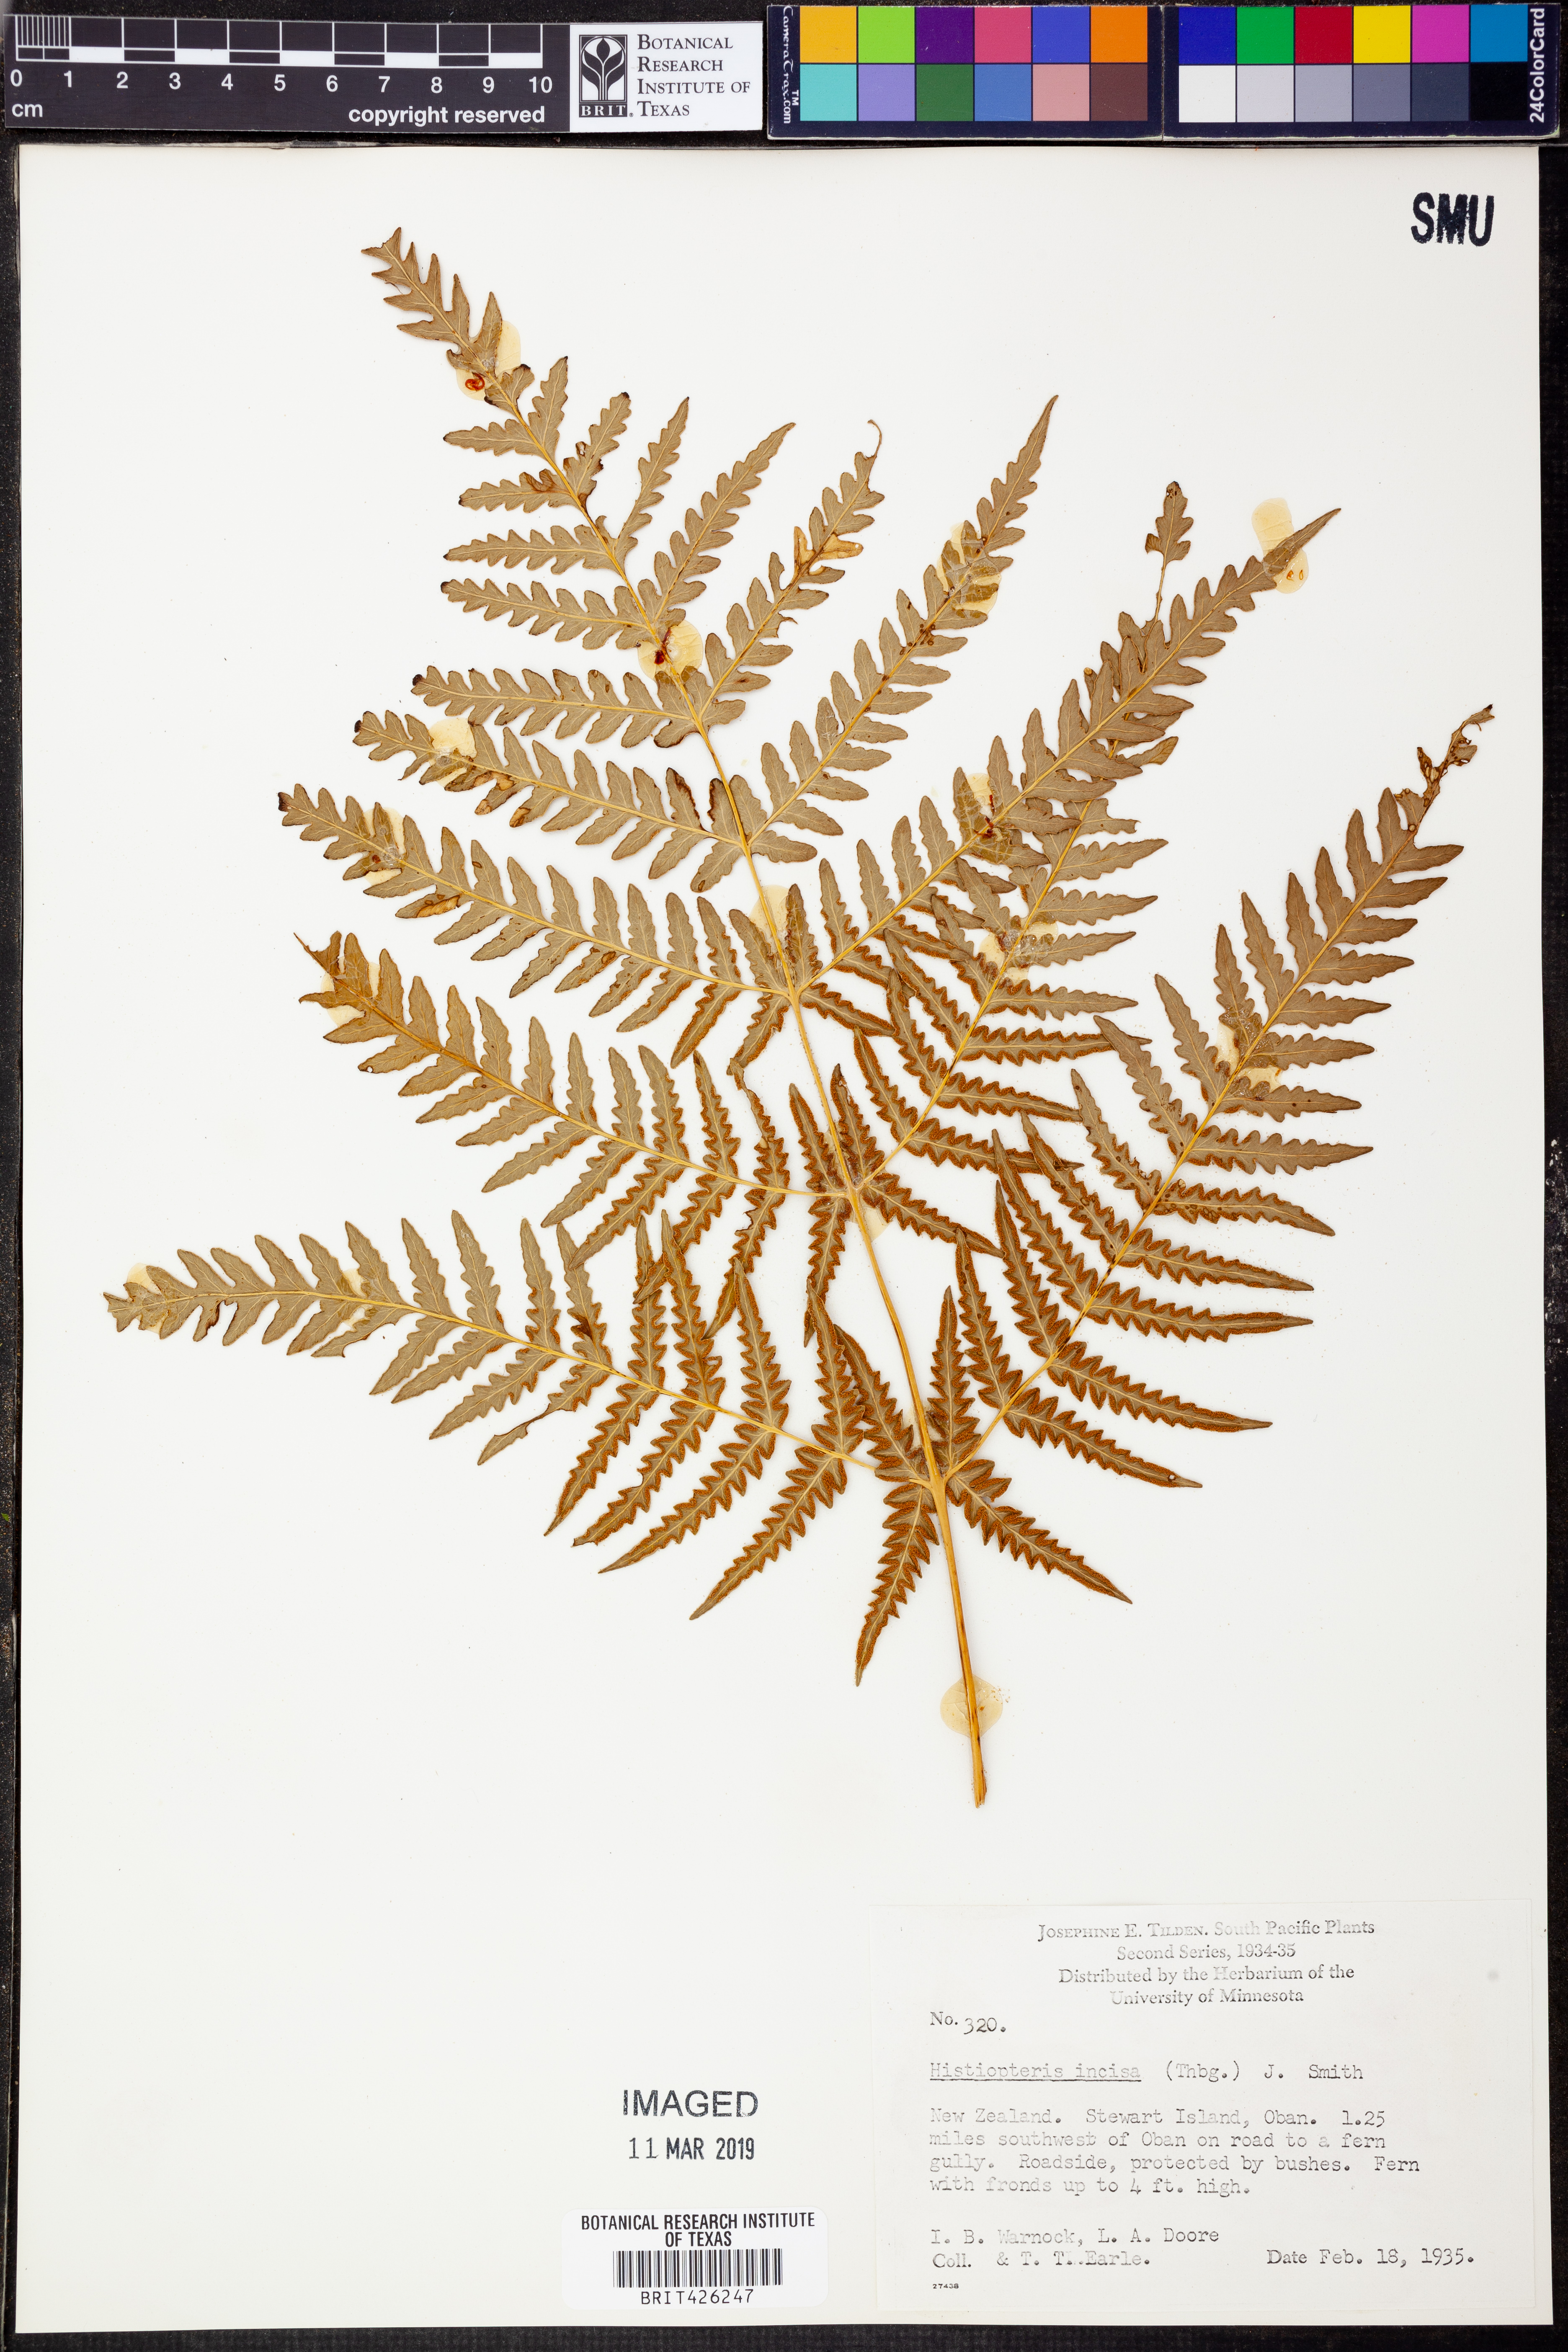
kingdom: Plantae
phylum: Tracheophyta
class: Polypodiopsida
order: Polypodiales
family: Dennstaedtiaceae
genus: Histiopteris
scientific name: Histiopteris incisa
